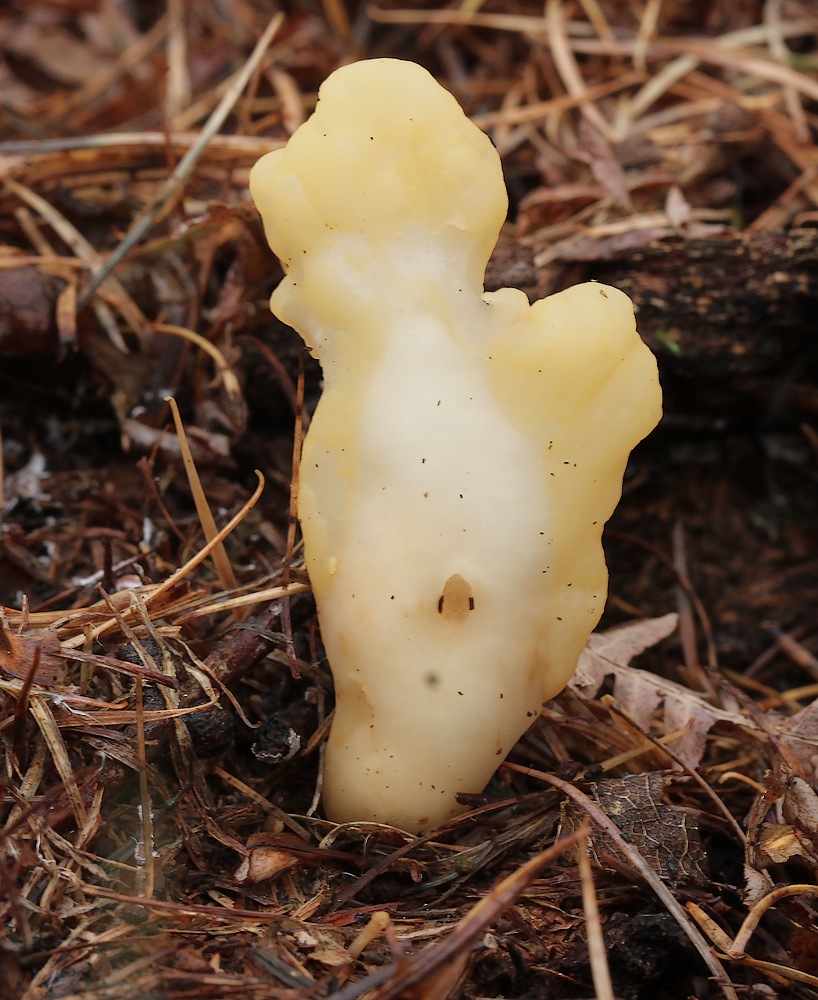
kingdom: Fungi
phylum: Ascomycota
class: Leotiomycetes
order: Rhytismatales
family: Cudoniaceae
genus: Spathularia
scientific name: Spathularia flavida
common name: gul spatelsvamp
